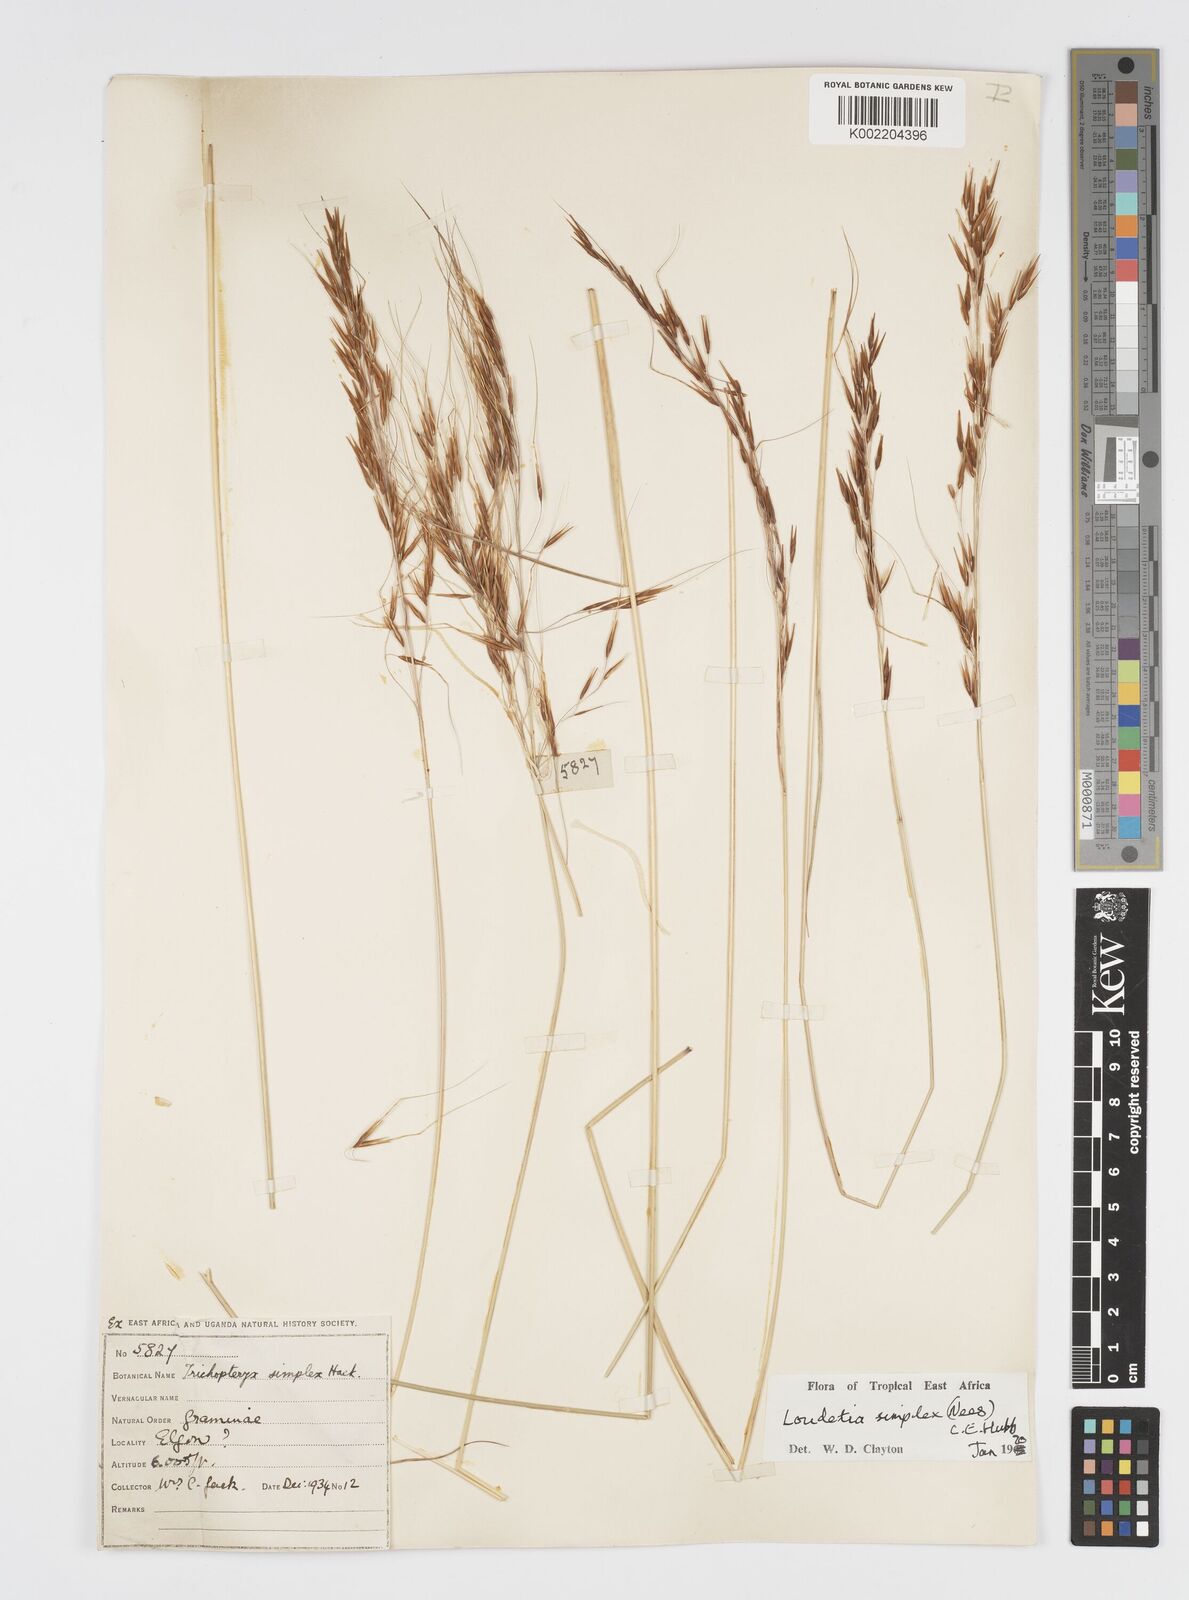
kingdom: Plantae
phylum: Tracheophyta
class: Liliopsida
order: Poales
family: Poaceae
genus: Loudetia
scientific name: Loudetia simplex
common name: Common russet grass
